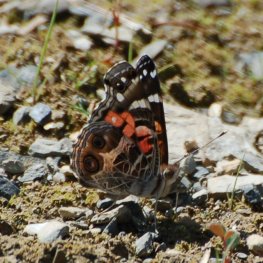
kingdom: Animalia
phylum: Arthropoda
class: Insecta
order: Lepidoptera
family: Nymphalidae
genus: Vanessa
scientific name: Vanessa virginiensis
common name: American Lady
